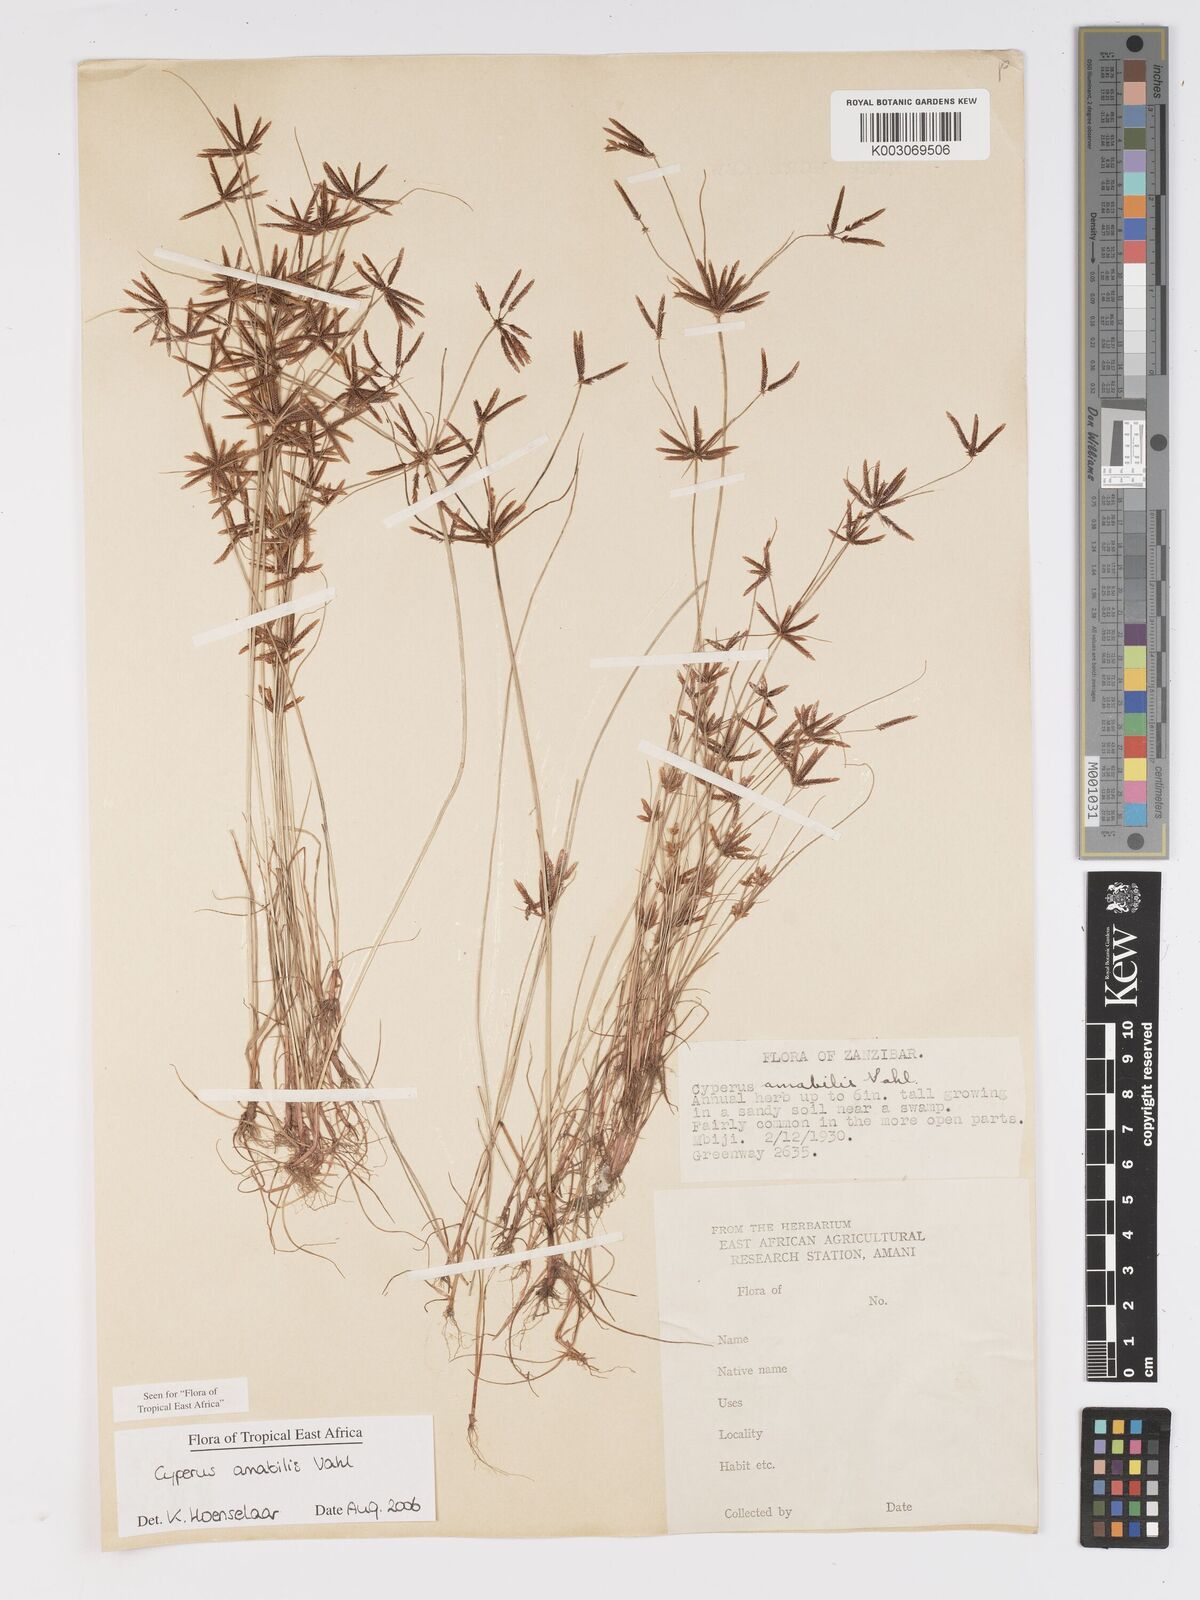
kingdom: Plantae
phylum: Tracheophyta
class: Liliopsida
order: Poales
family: Cyperaceae
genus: Cyperus
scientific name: Cyperus amabilis
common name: Foothill flat sedge
